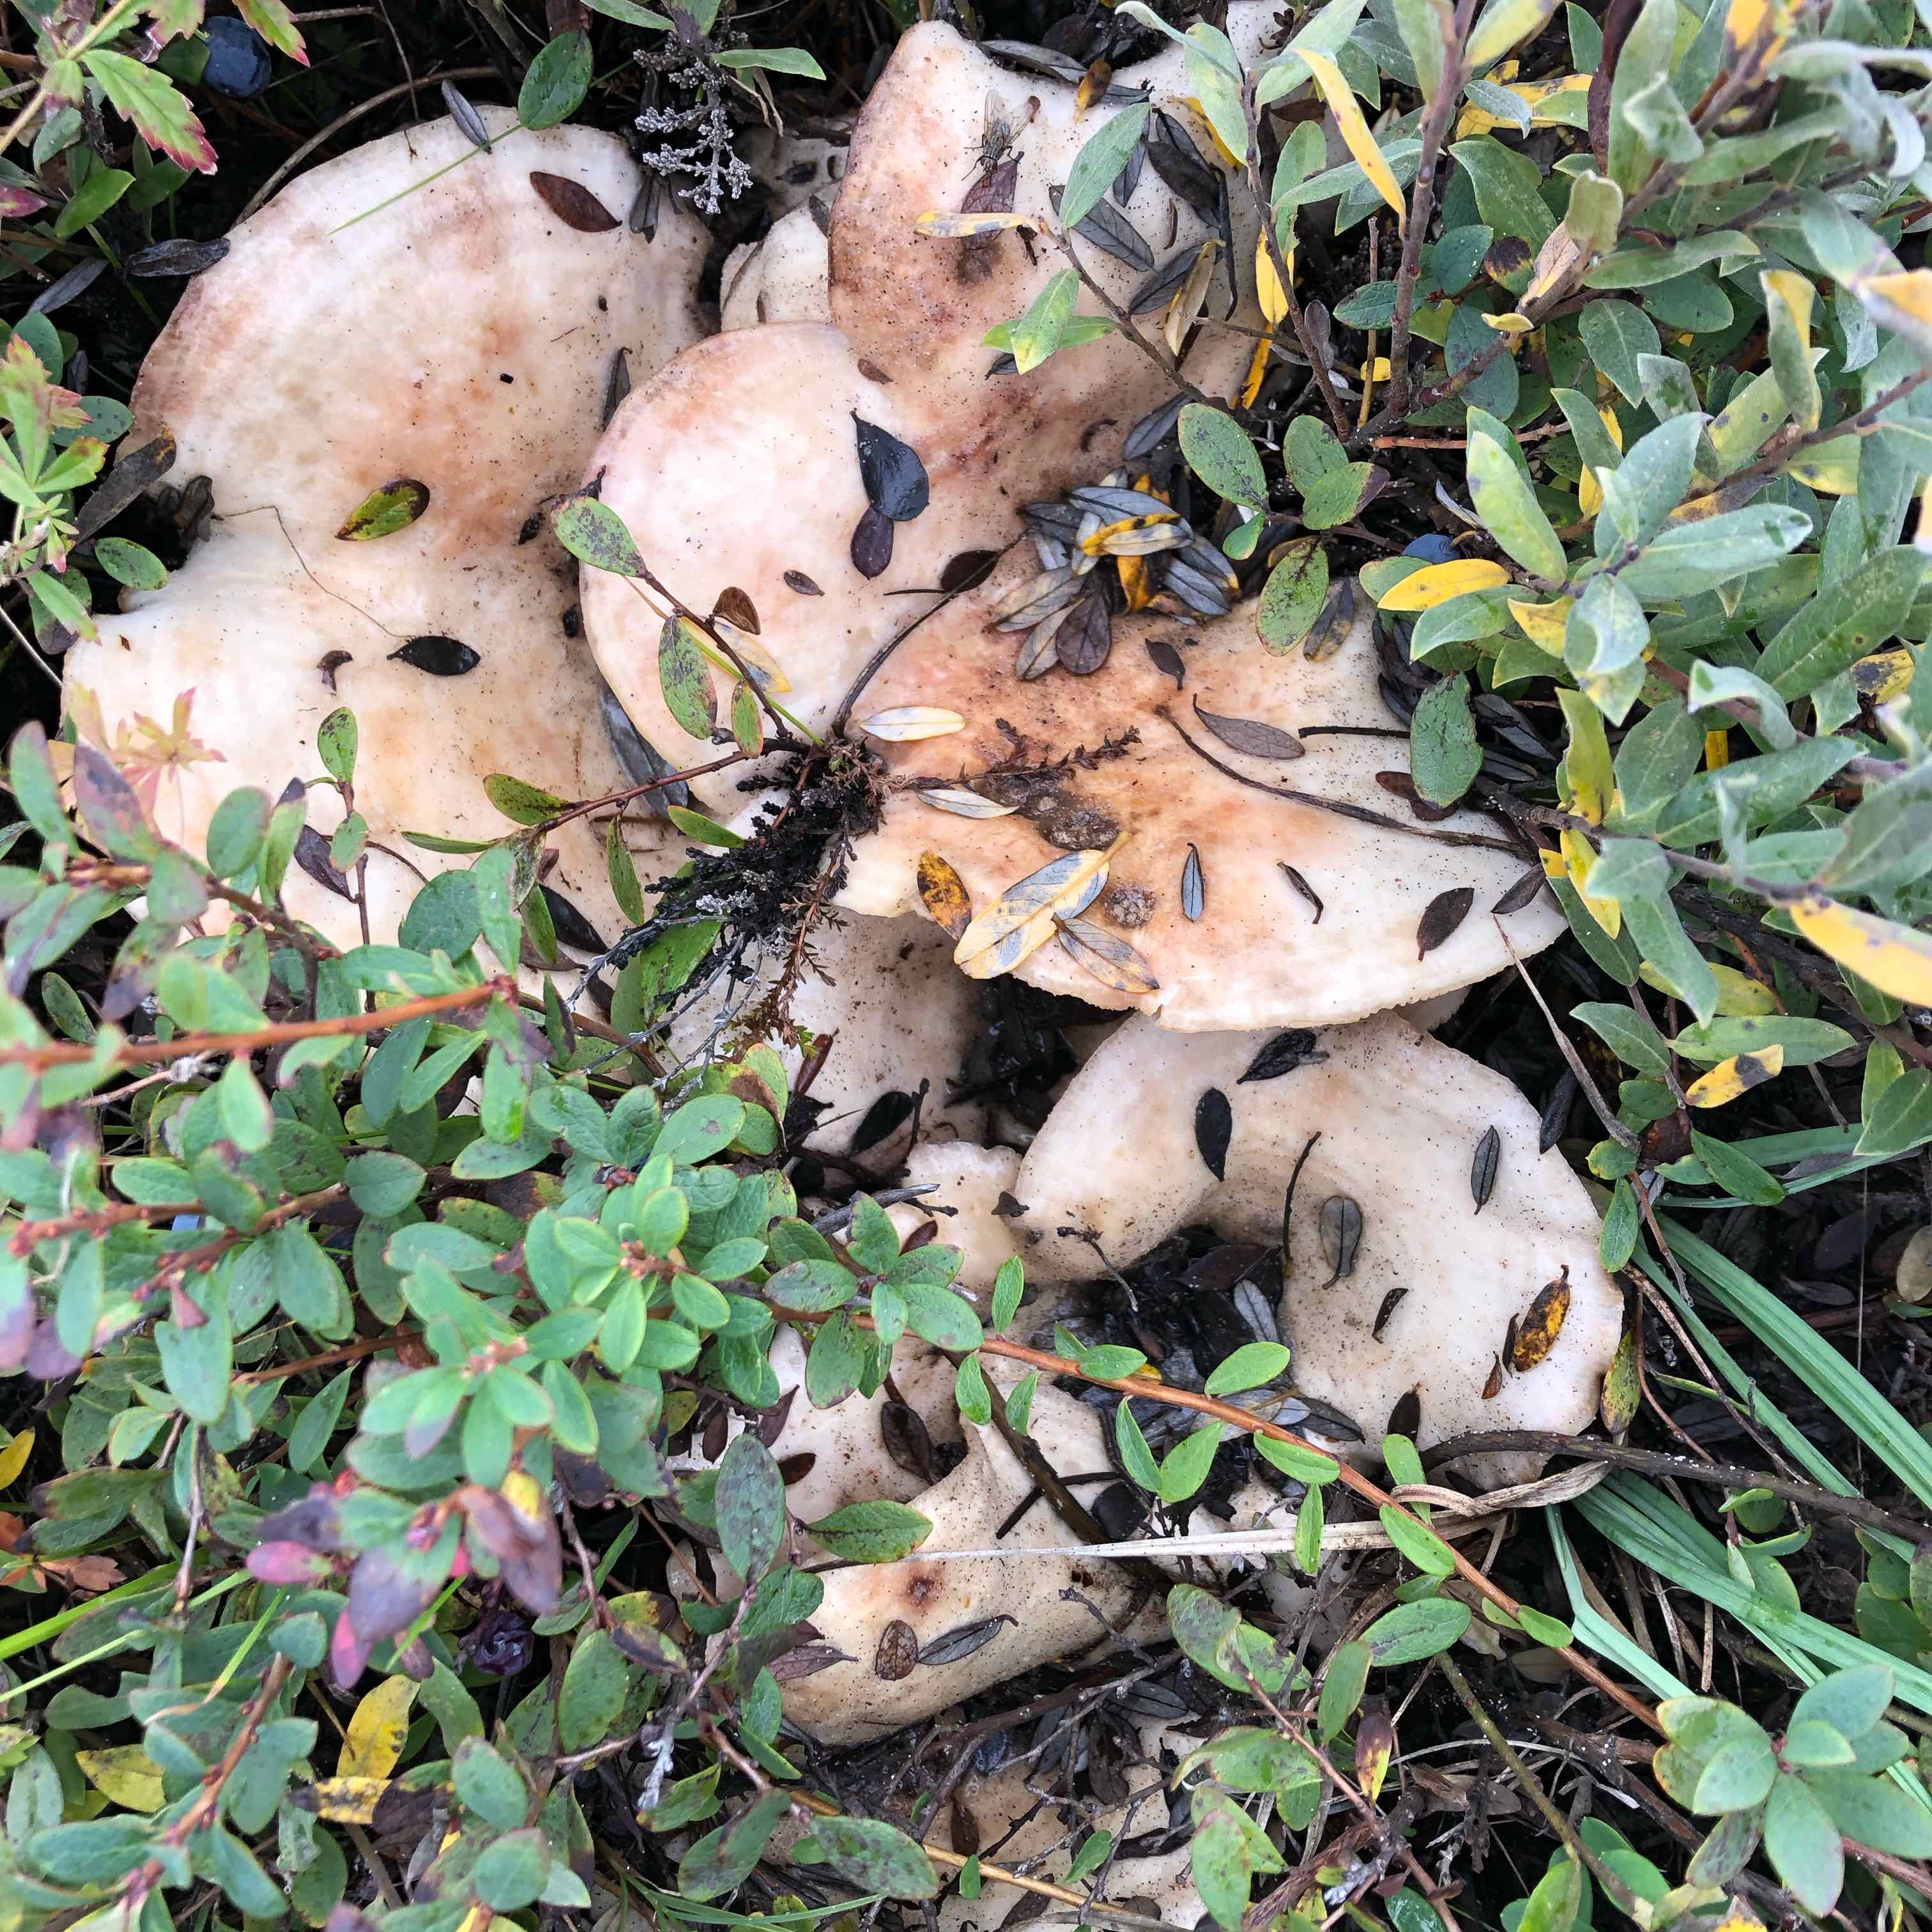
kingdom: Fungi
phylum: Basidiomycota
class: Agaricomycetes
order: Russulales
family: Russulaceae
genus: Lactarius
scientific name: Lactarius controversus
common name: rosabladet mælkehat
